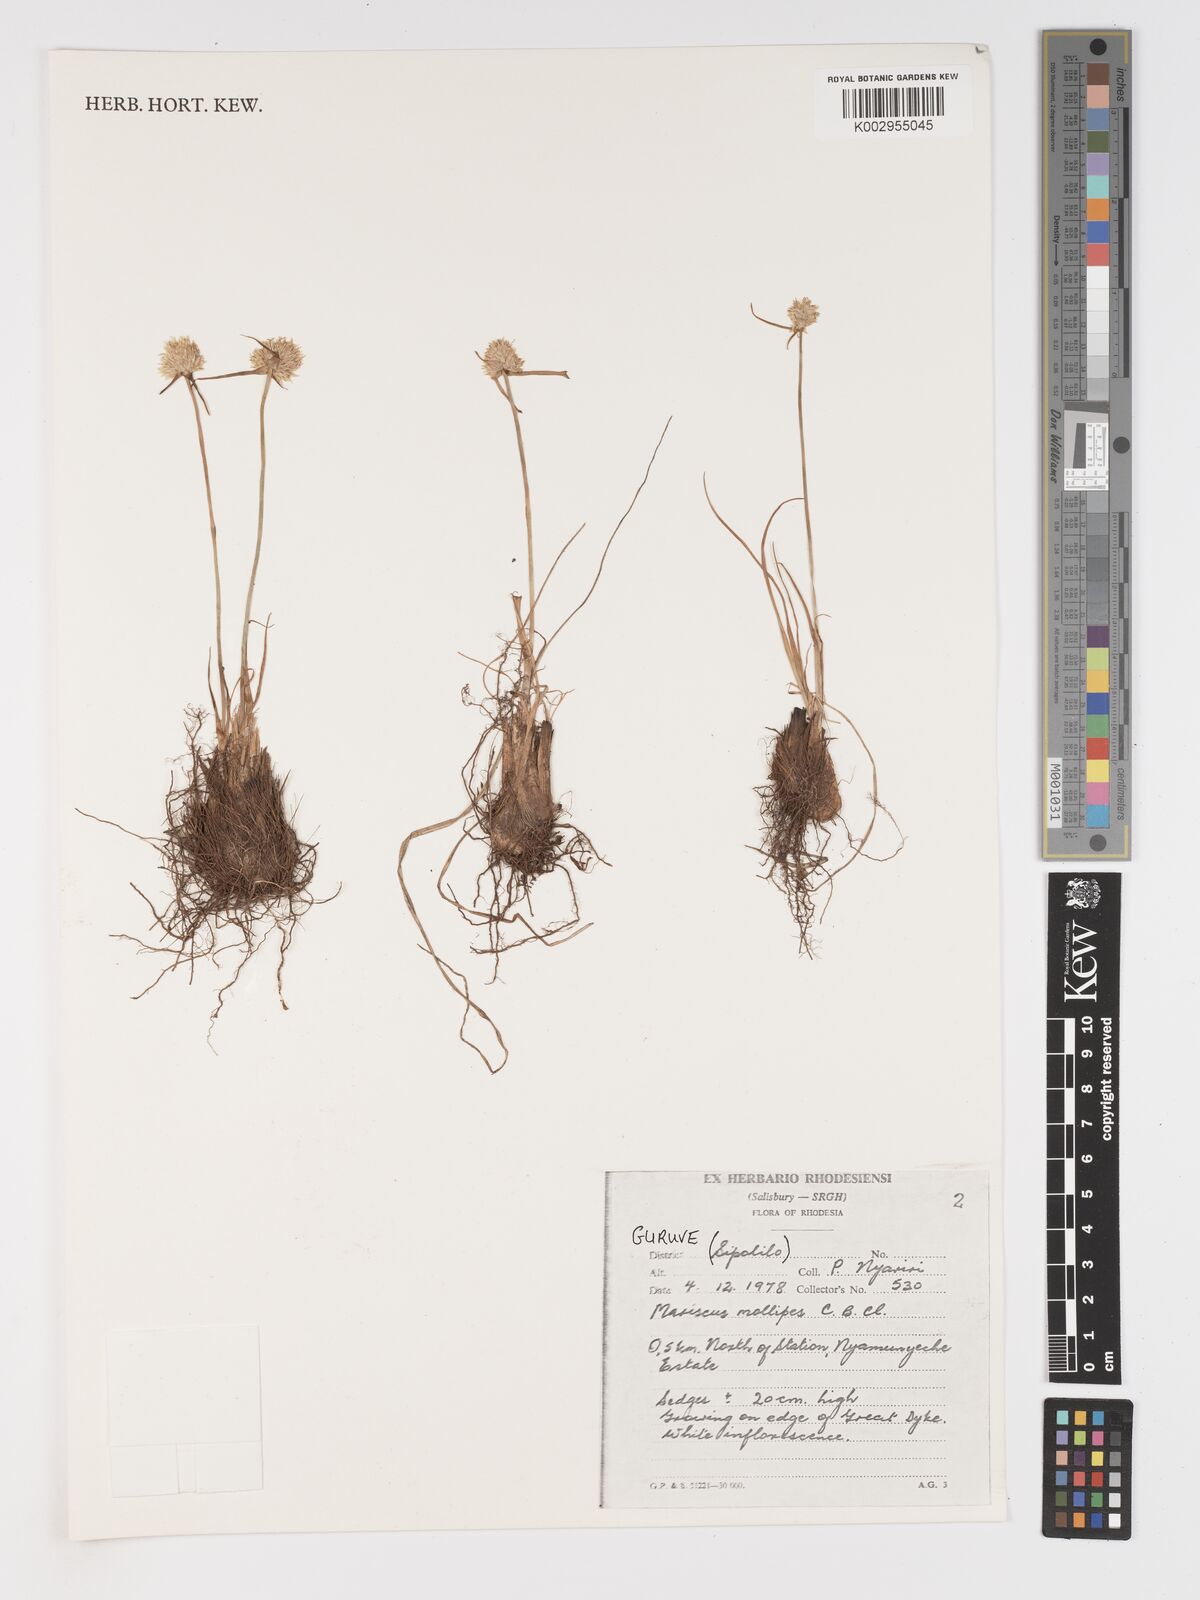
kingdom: Plantae
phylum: Tracheophyta
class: Liliopsida
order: Poales
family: Cyperaceae
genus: Cyperus
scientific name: Cyperus mollipes
